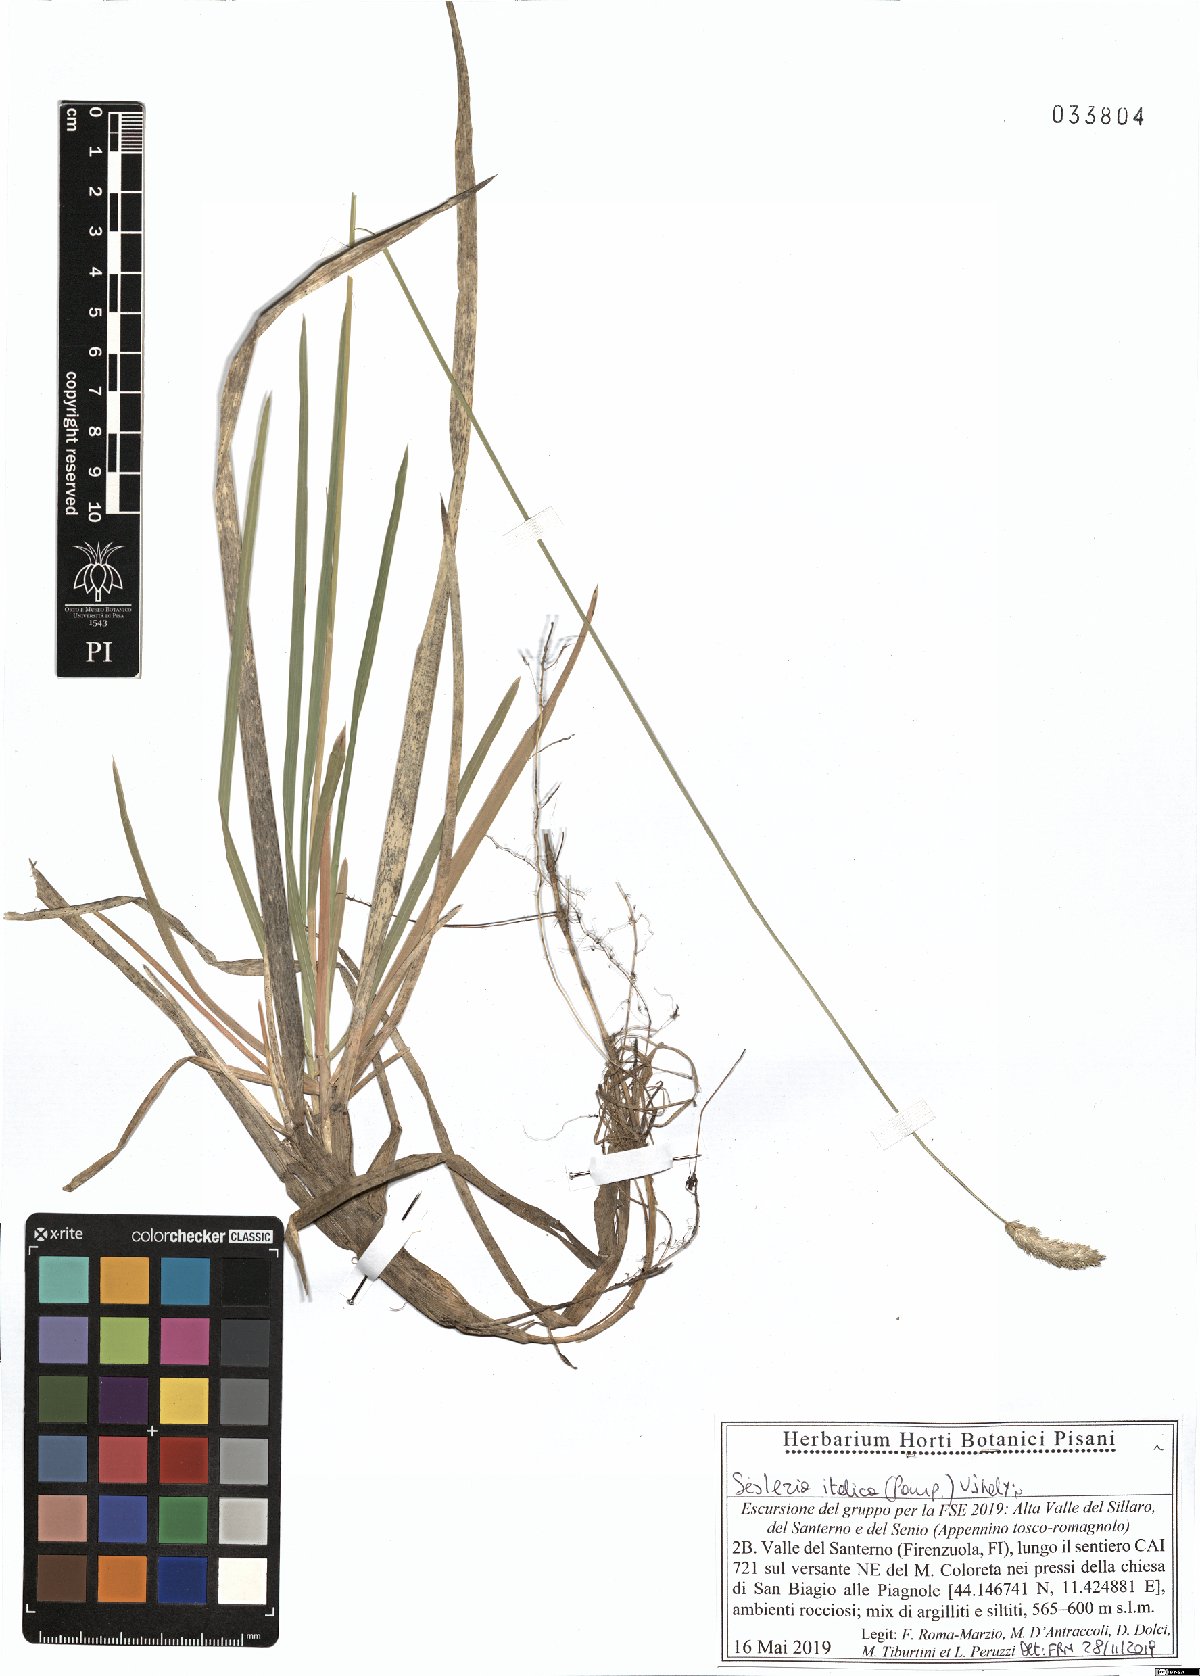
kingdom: Plantae
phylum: Tracheophyta
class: Liliopsida
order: Poales
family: Poaceae
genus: Sesleria
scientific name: Sesleria italica
